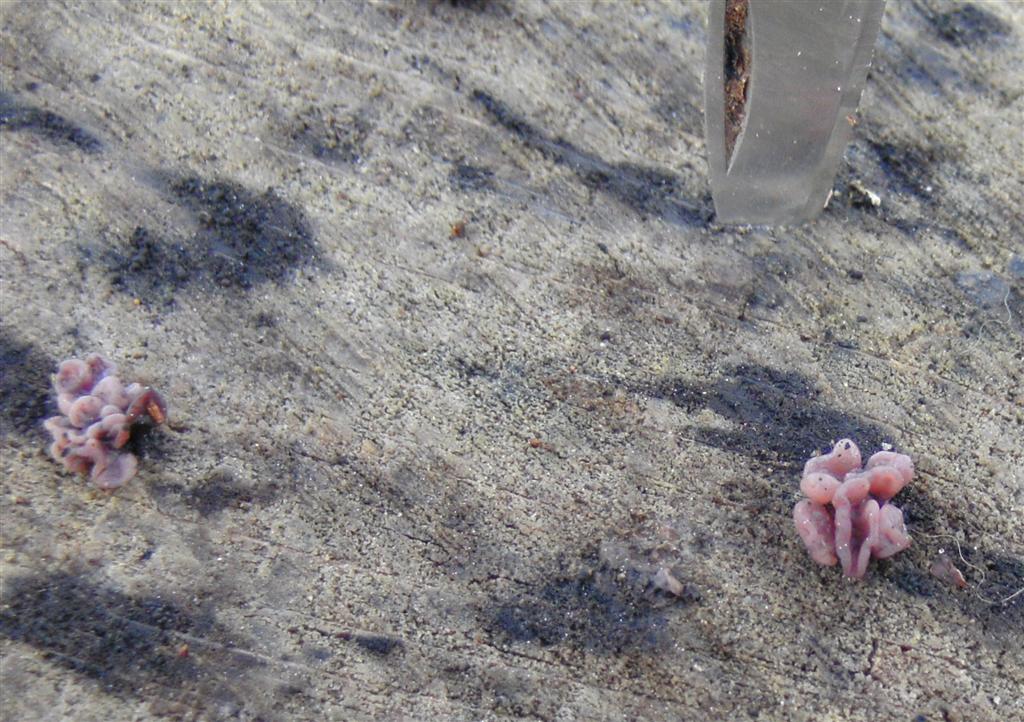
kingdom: Fungi
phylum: Ascomycota
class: Leotiomycetes
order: Helotiales
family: Gelatinodiscaceae
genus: Ascocoryne
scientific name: Ascocoryne sarcoides
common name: rødlilla sejskive
